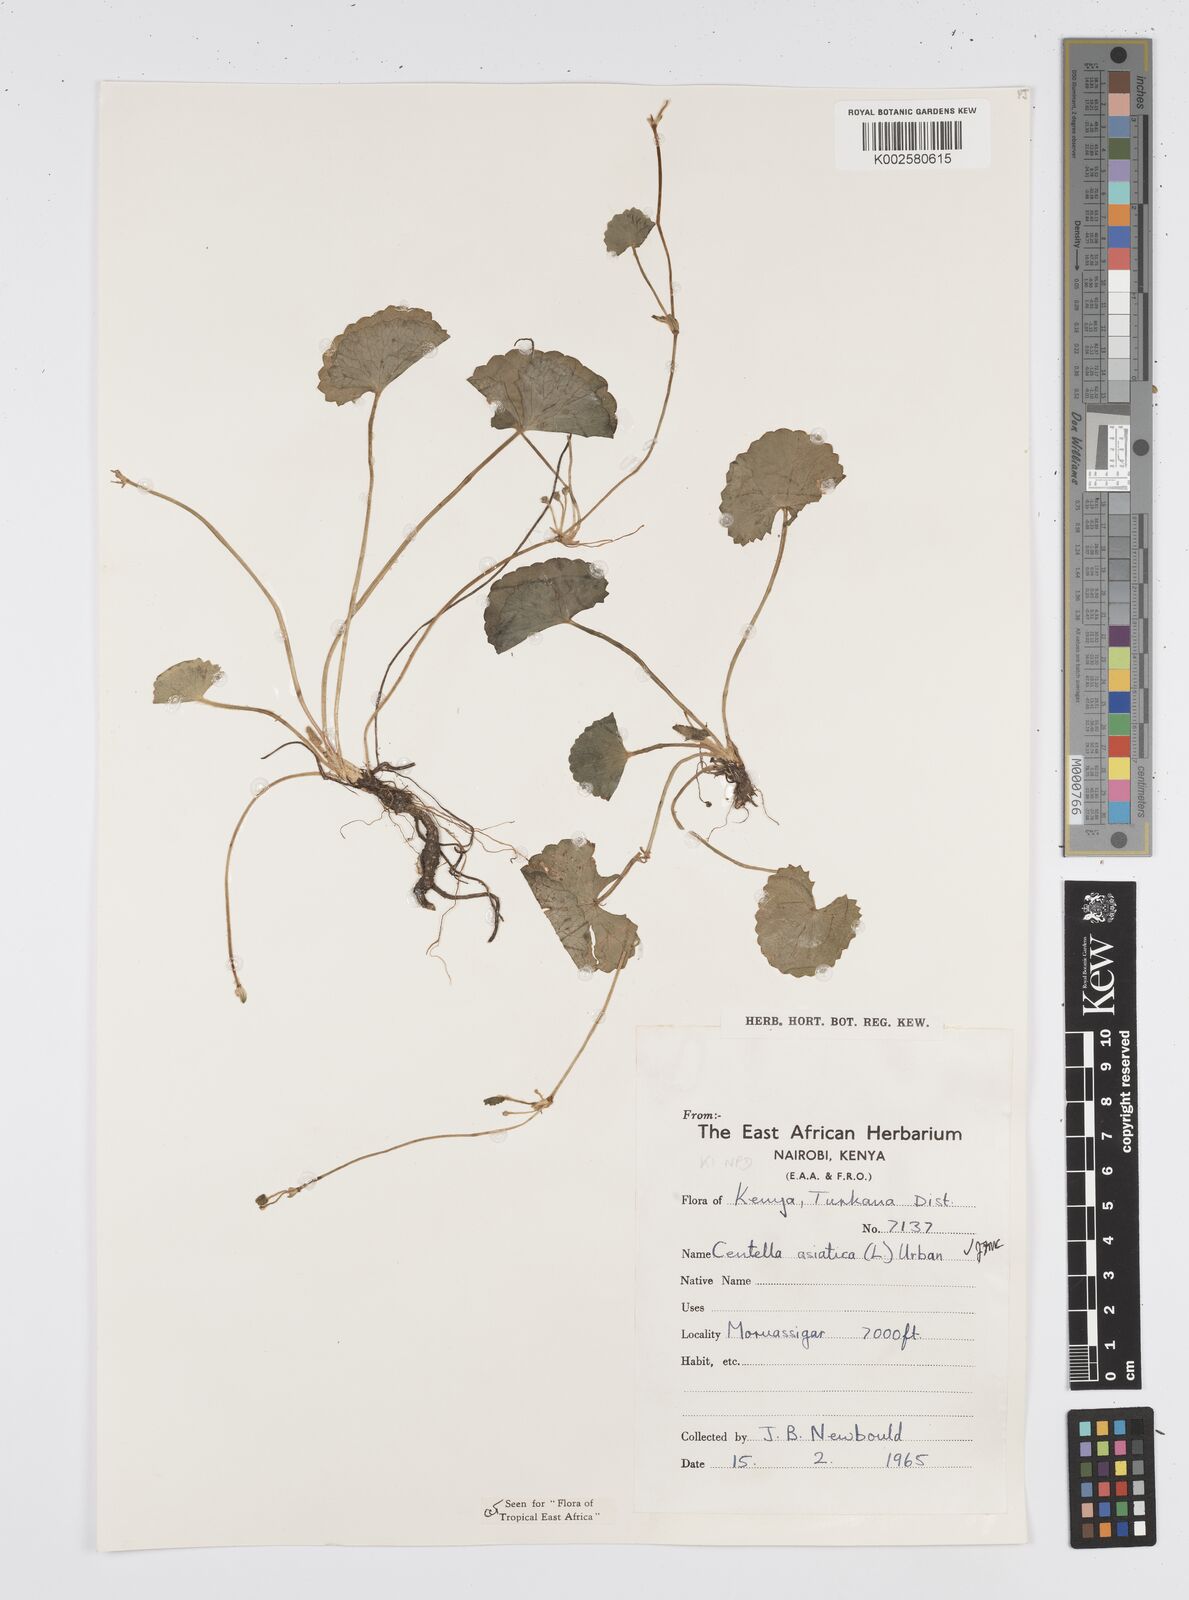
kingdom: Plantae
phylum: Tracheophyta
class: Magnoliopsida
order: Apiales
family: Apiaceae
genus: Centella
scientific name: Centella asiatica
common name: Spadeleaf
